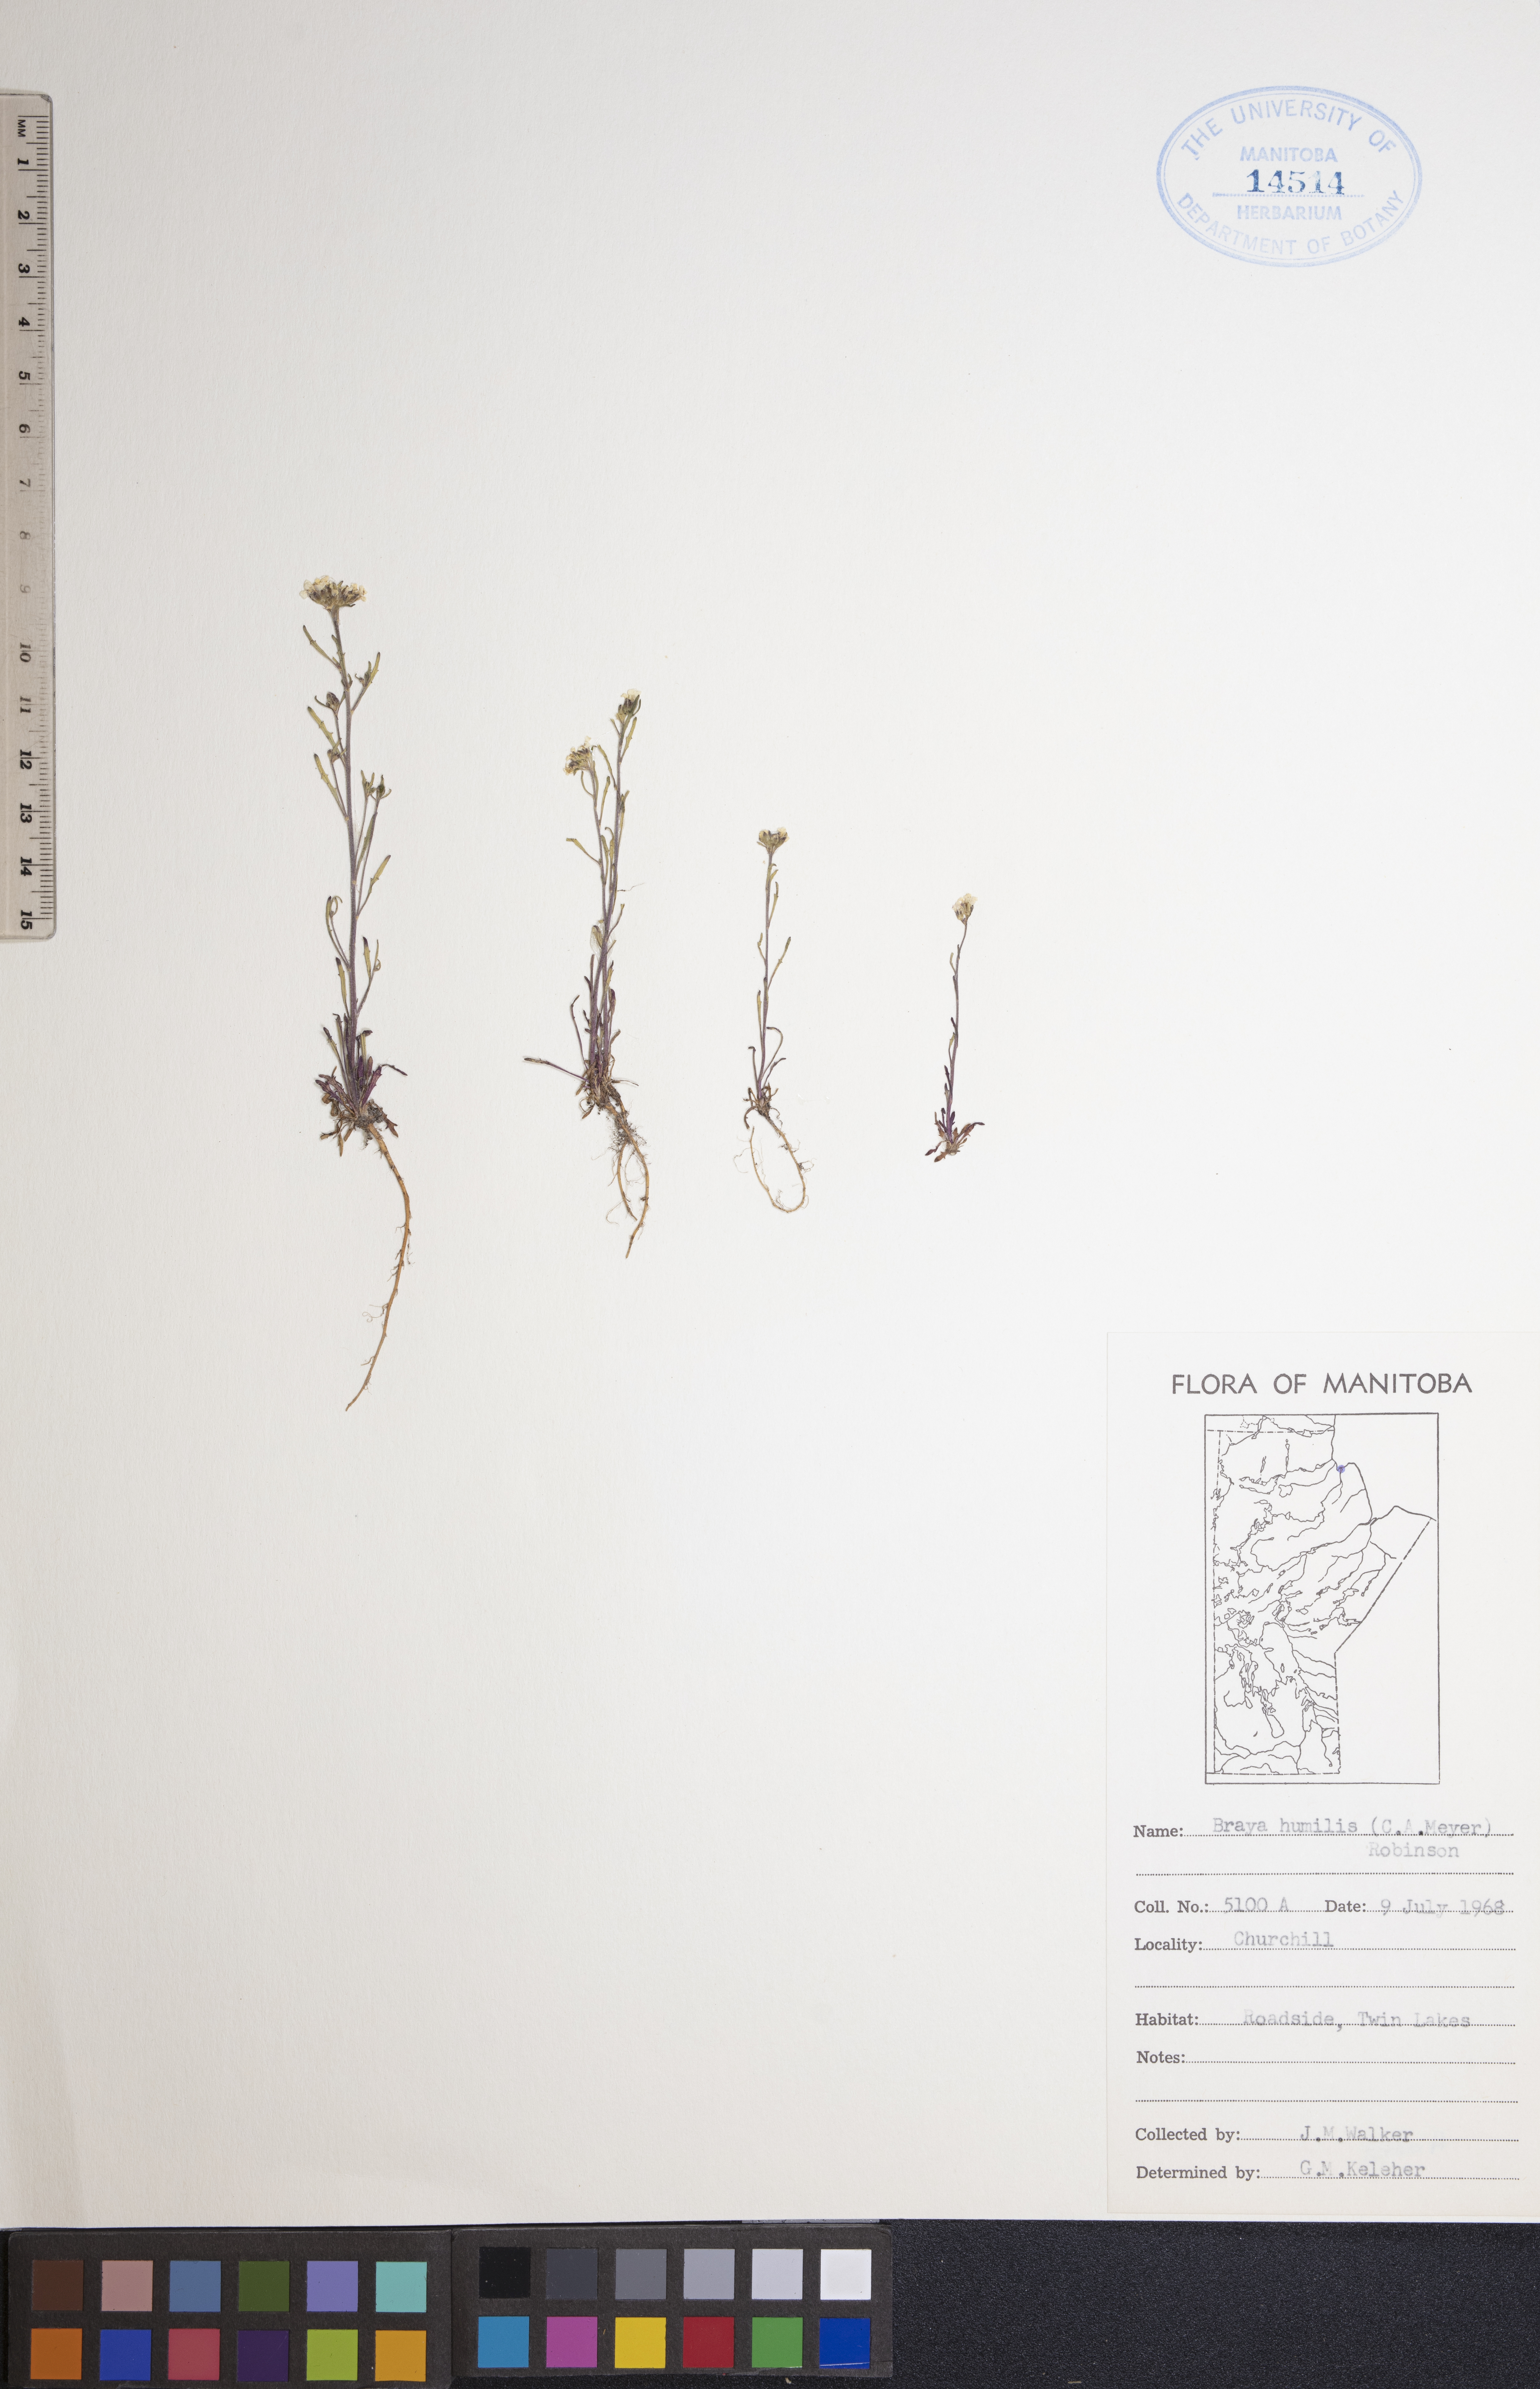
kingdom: Plantae
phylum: Tracheophyta
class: Magnoliopsida
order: Brassicales
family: Brassicaceae
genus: Braya
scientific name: Braya humilis
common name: Alpine northern rockcress
